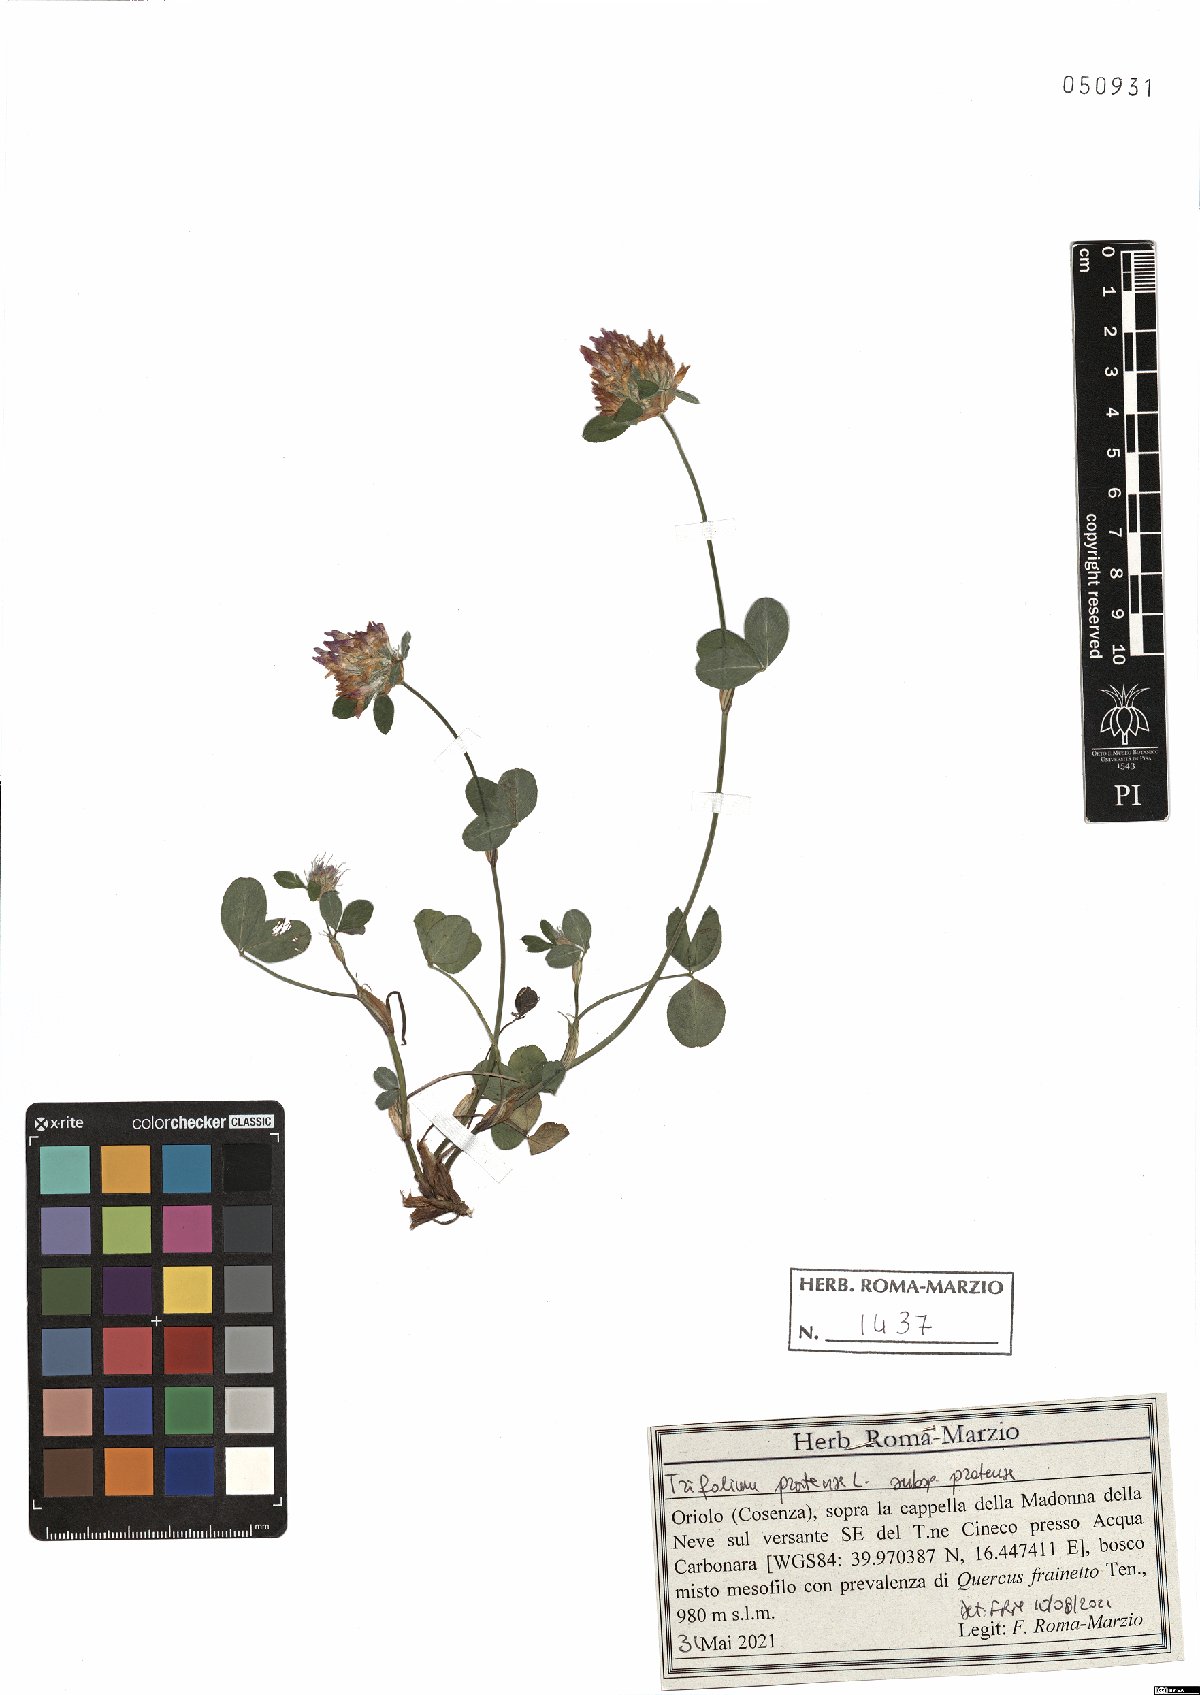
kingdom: Plantae
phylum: Tracheophyta
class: Magnoliopsida
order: Fabales
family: Fabaceae
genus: Trifolium
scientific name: Trifolium pratense
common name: Red clover
